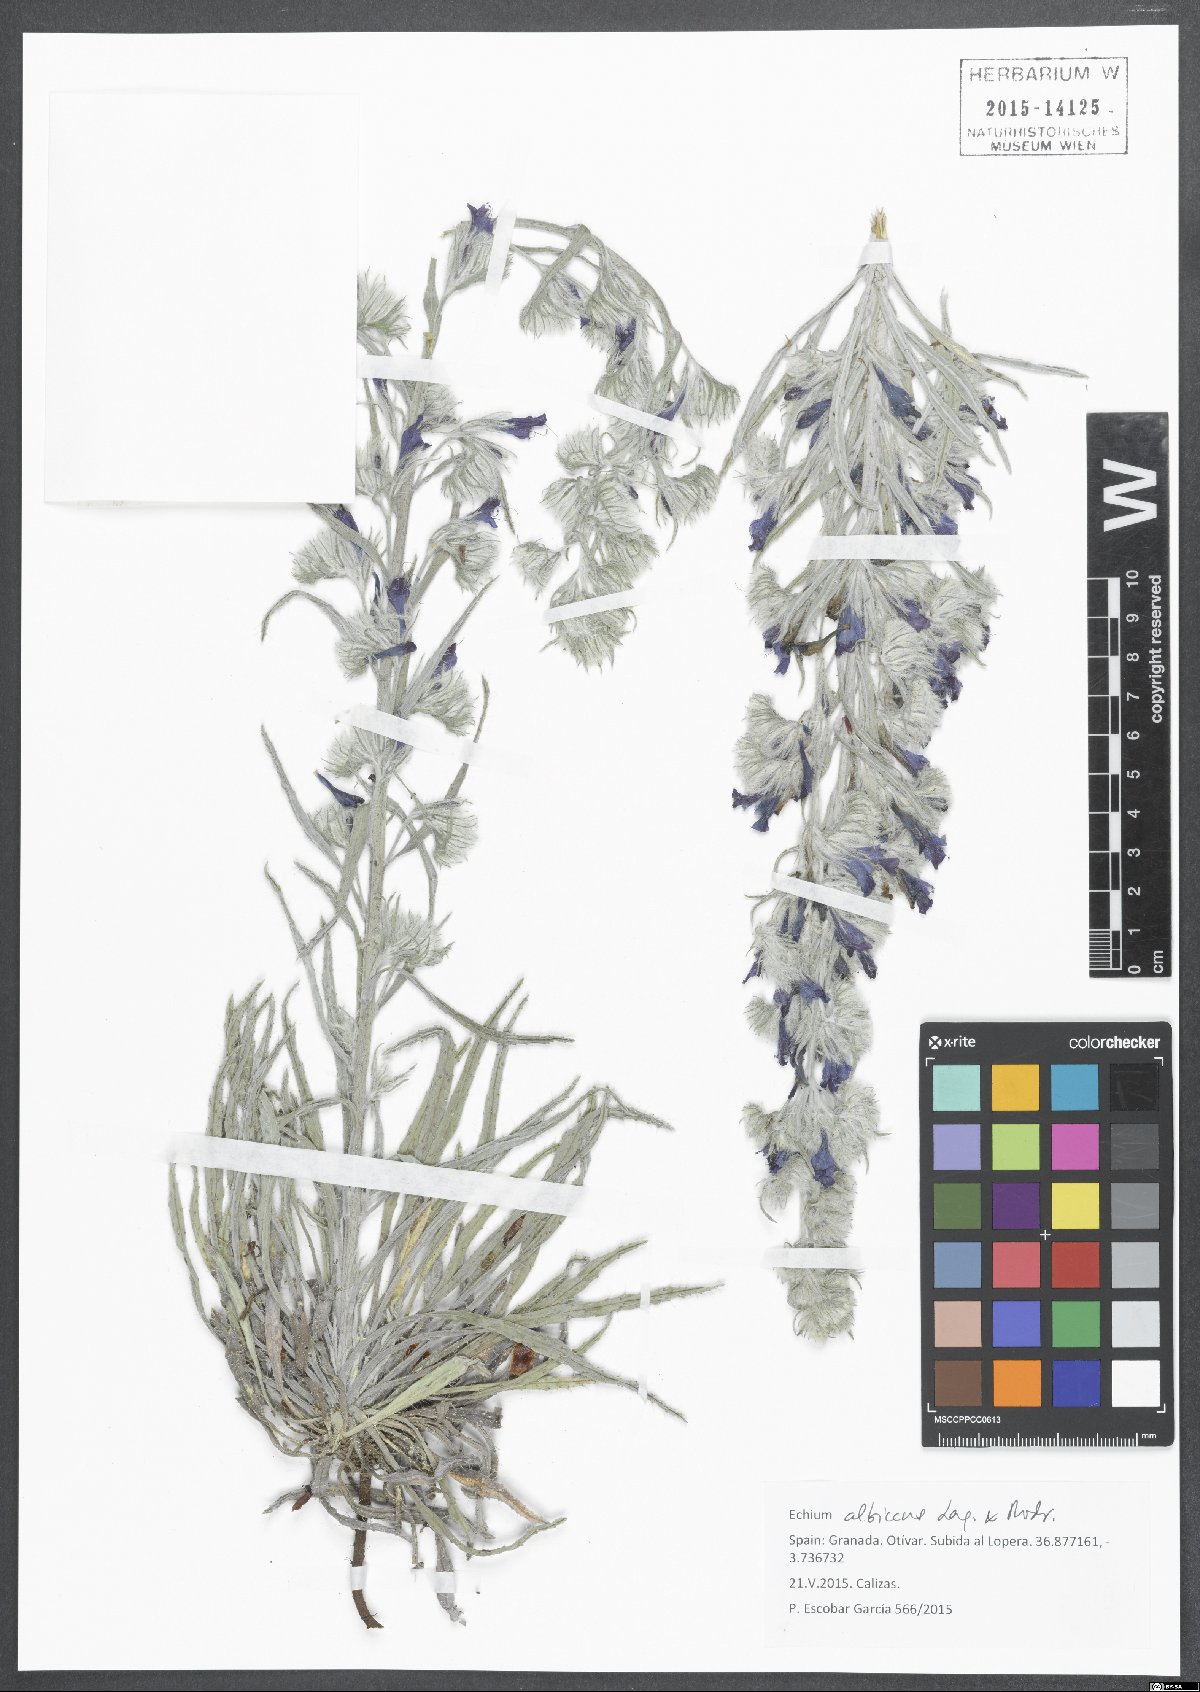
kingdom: Plantae
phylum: Tracheophyta
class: Magnoliopsida
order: Boraginales
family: Boraginaceae
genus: Echium
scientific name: Echium albicans
